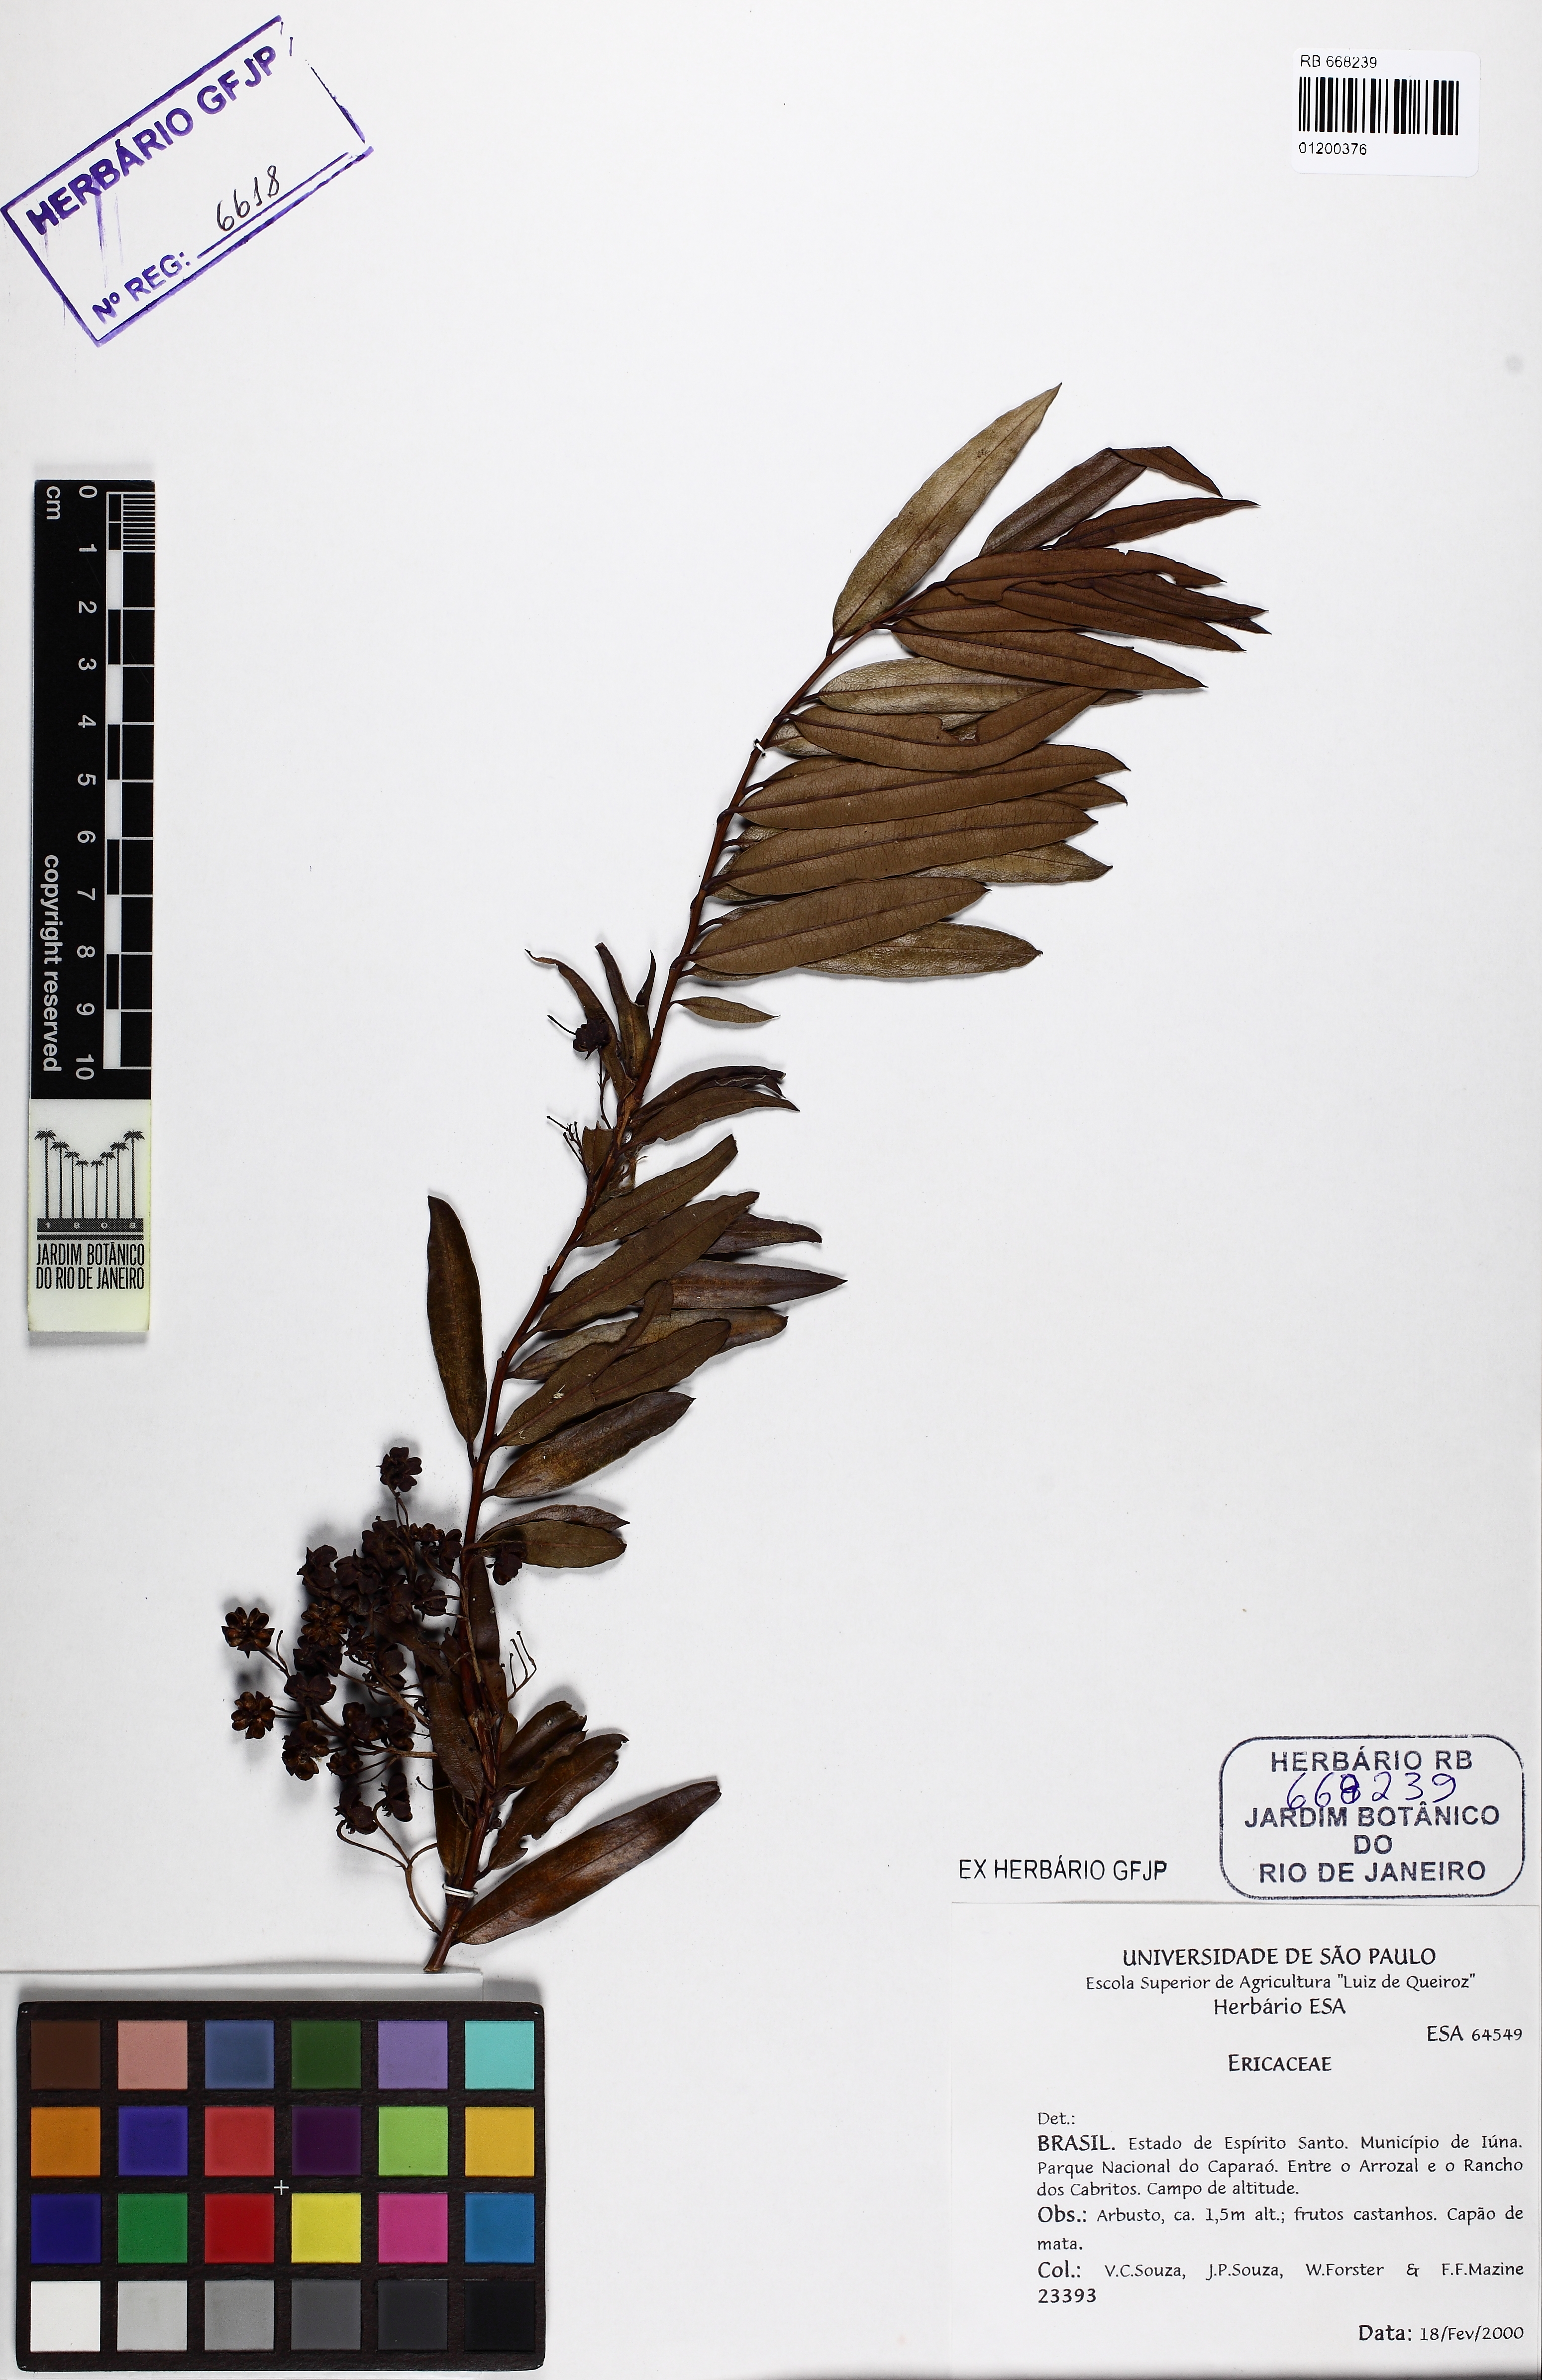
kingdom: Plantae
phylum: Tracheophyta
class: Magnoliopsida
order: Ericales
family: Ericaceae
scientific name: Ericaceae
